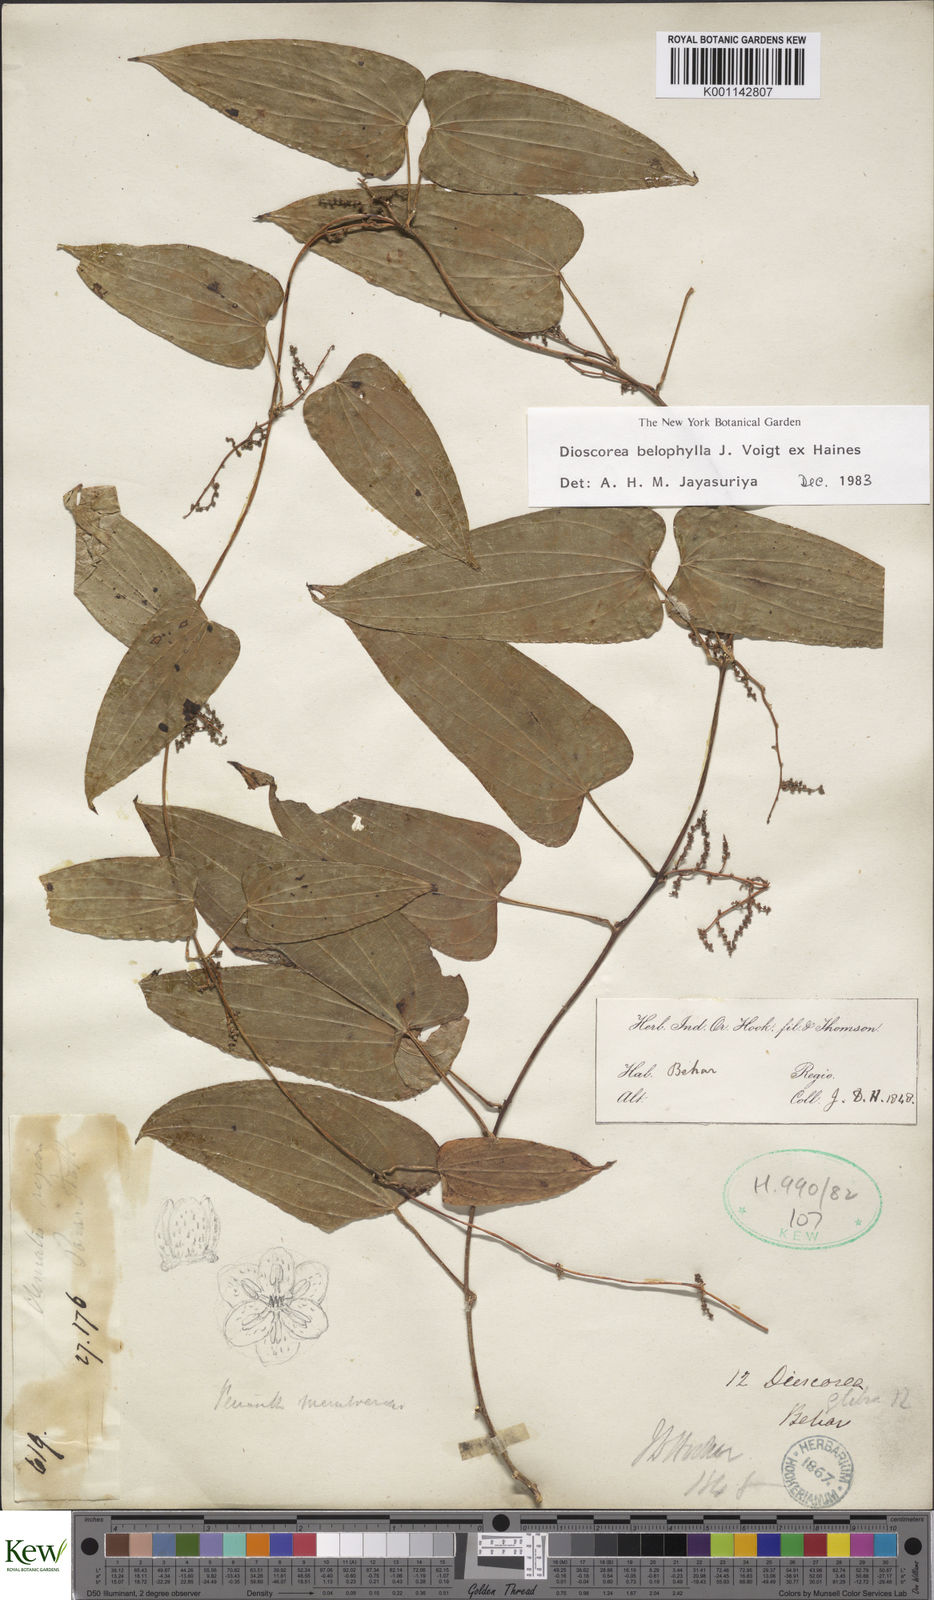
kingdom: Plantae
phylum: Tracheophyta
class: Liliopsida
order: Dioscoreales
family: Dioscoreaceae
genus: Dioscorea
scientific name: Dioscorea belophylla
